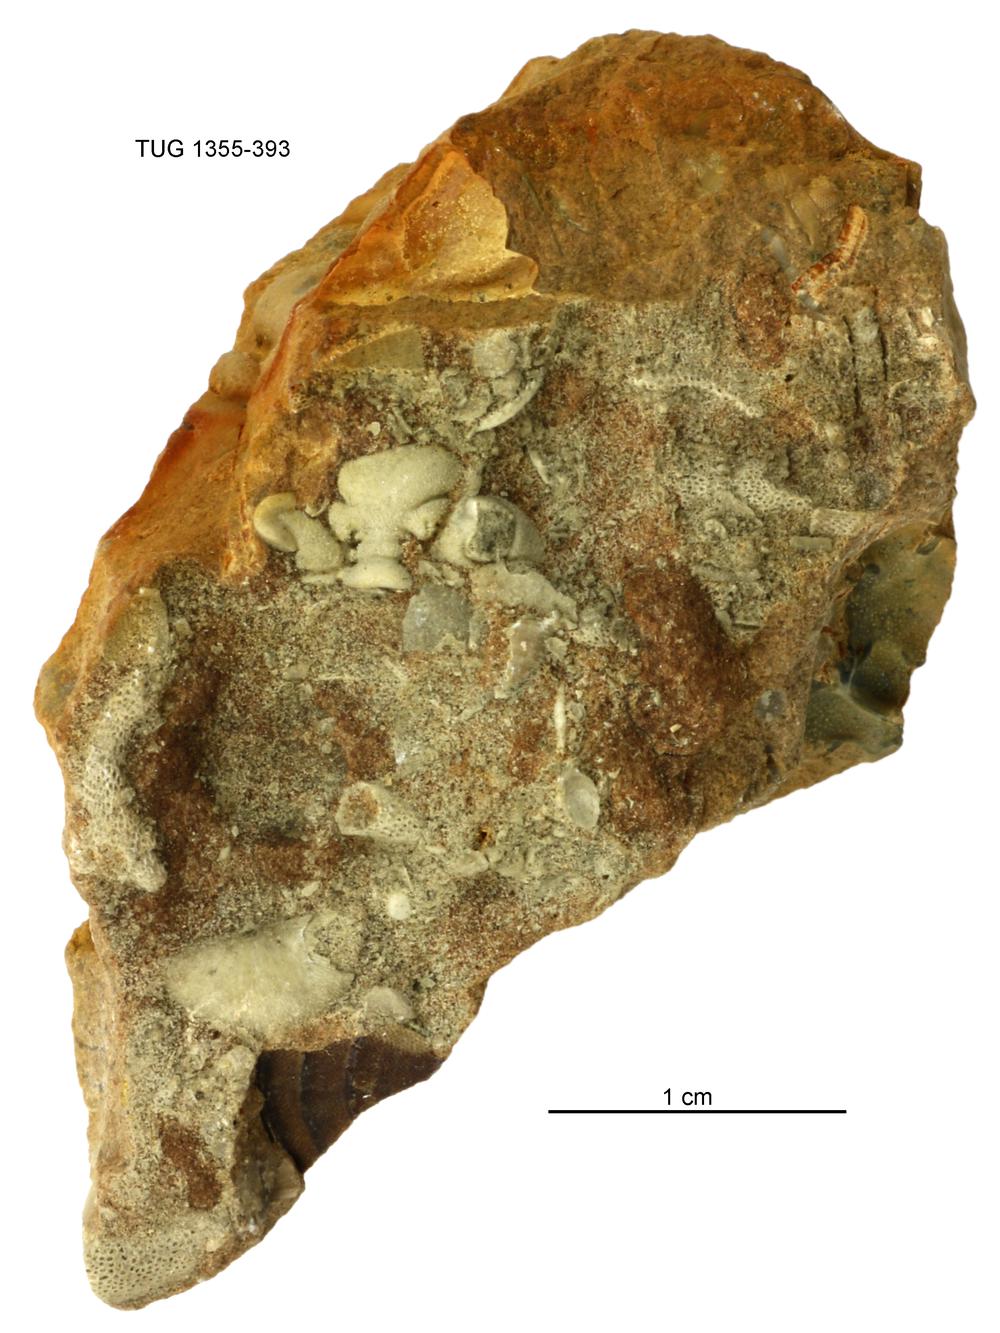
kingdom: Animalia
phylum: Arthropoda
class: Trilobita
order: Phacopida
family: Pterygometopidae
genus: Chasmops
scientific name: Chasmops
